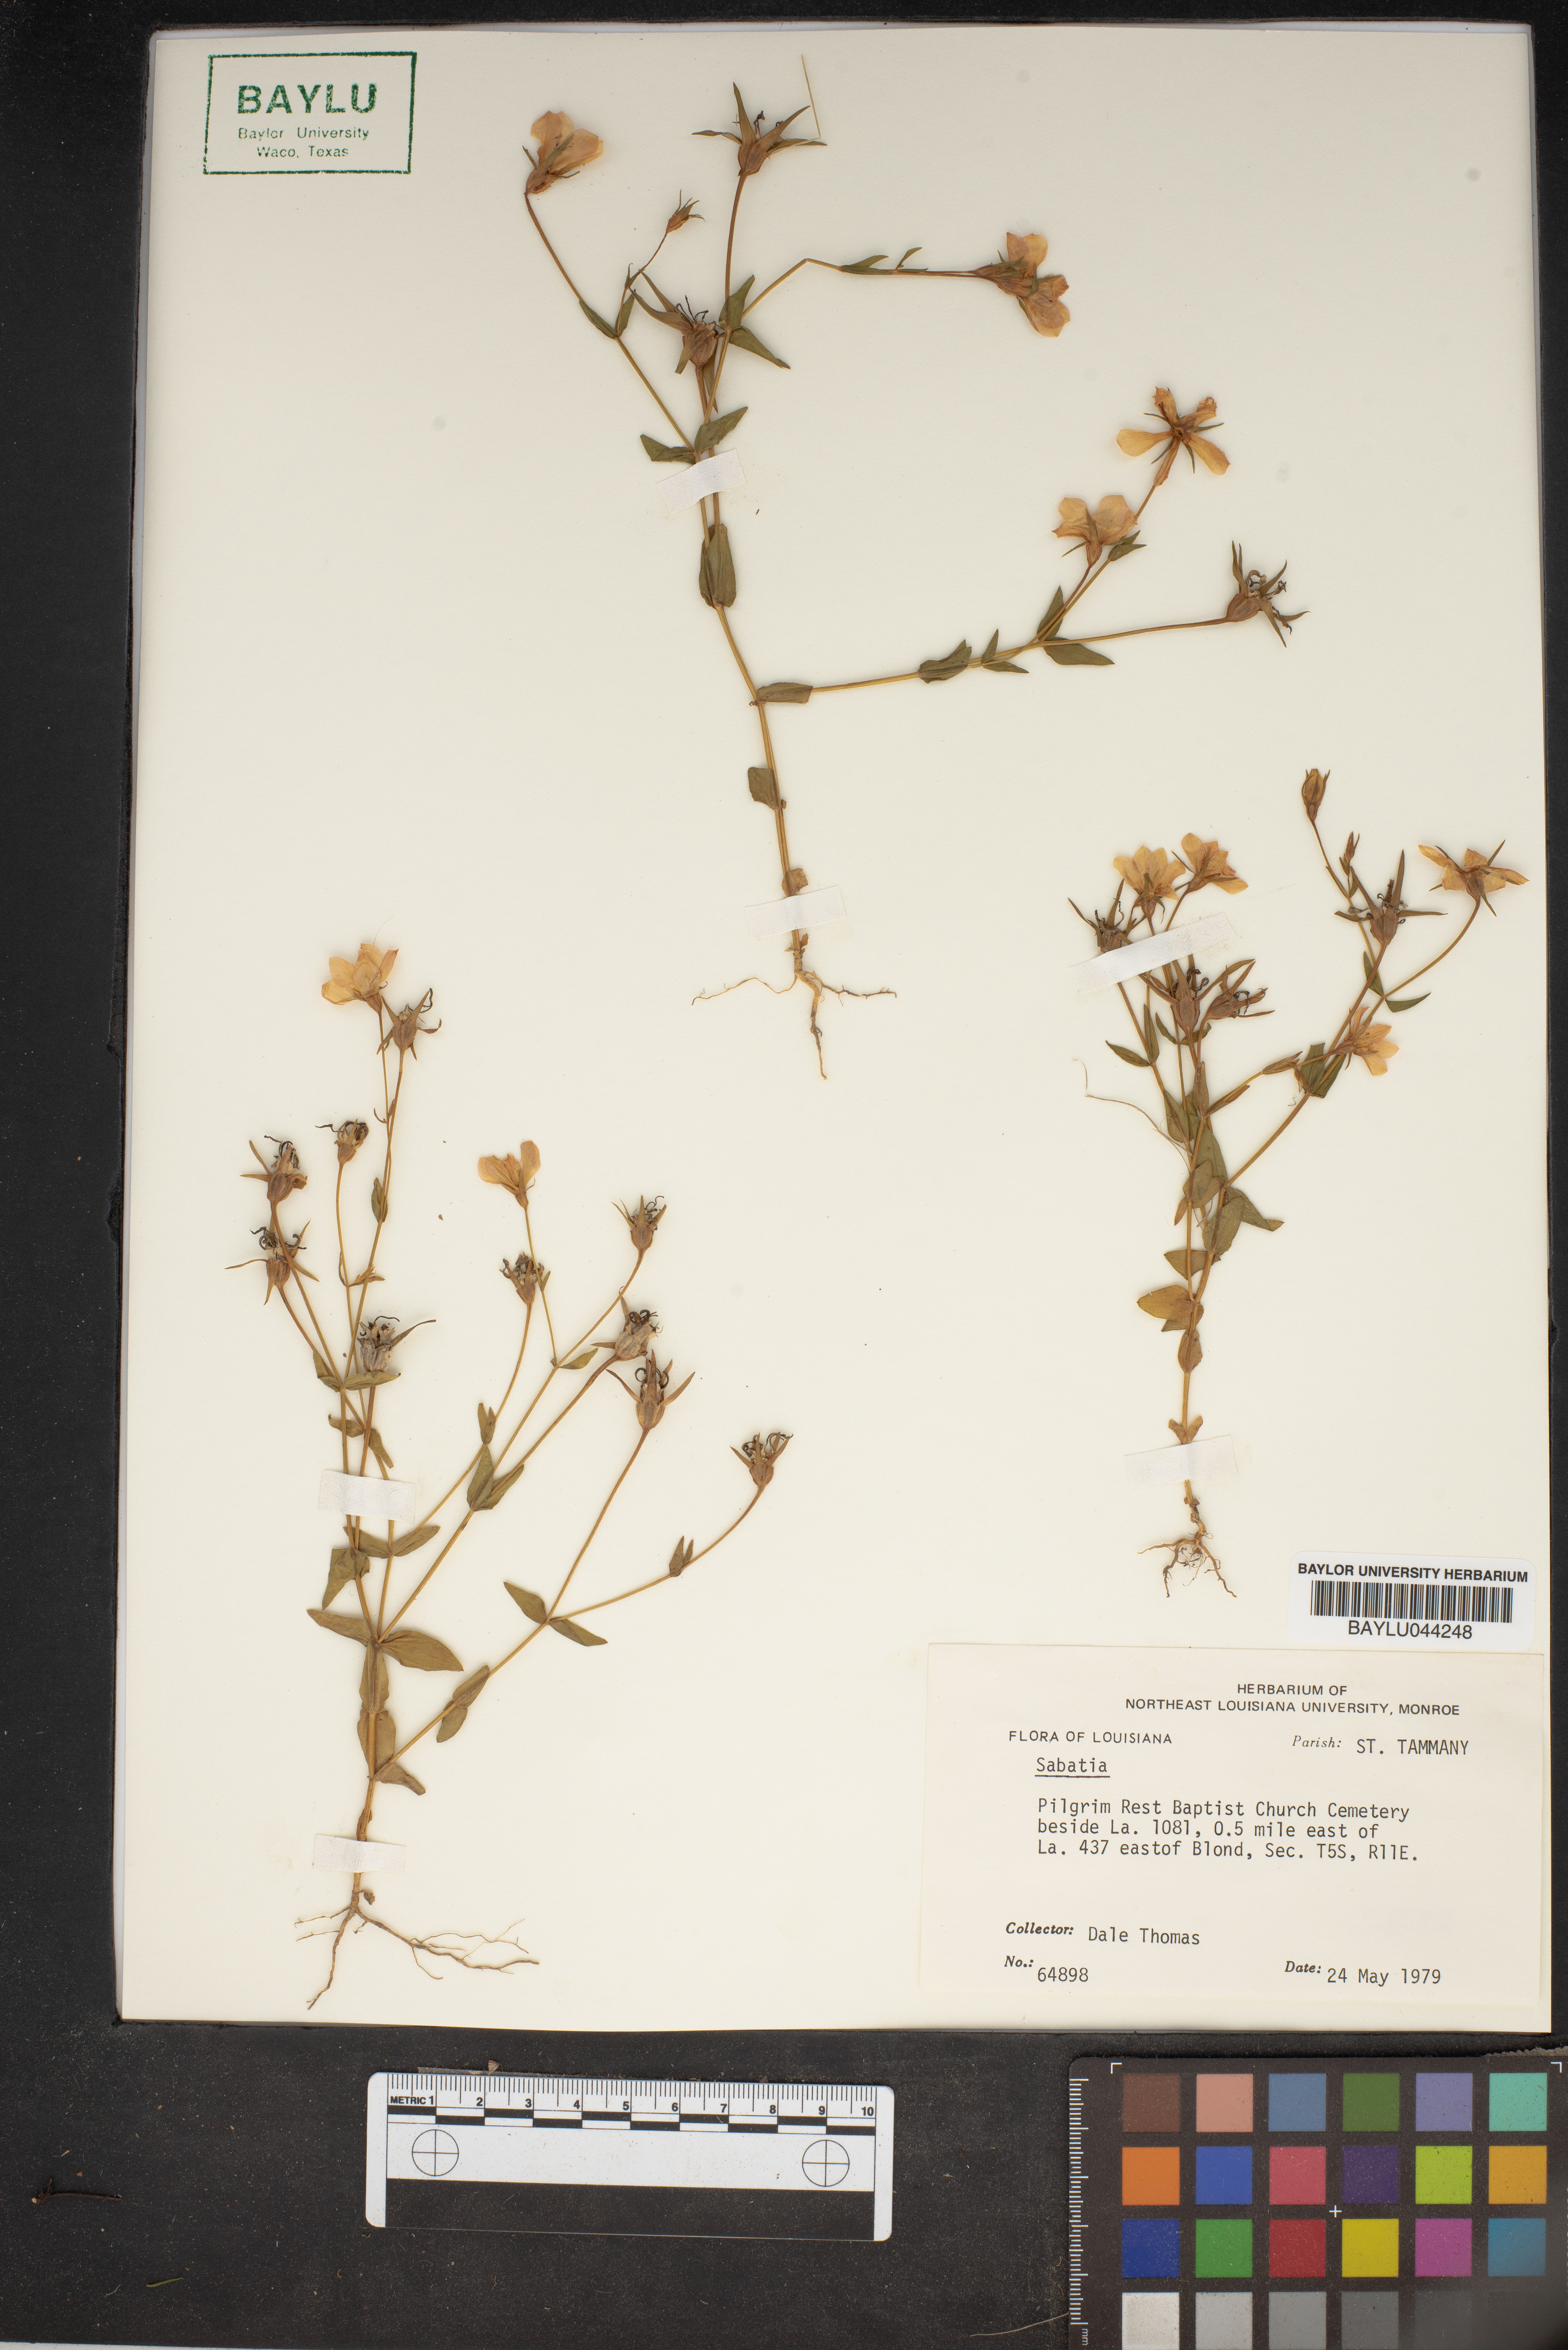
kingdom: Plantae
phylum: Tracheophyta
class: Magnoliopsida
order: Gentianales
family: Gentianaceae
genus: Sabatia
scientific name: Sabatia
